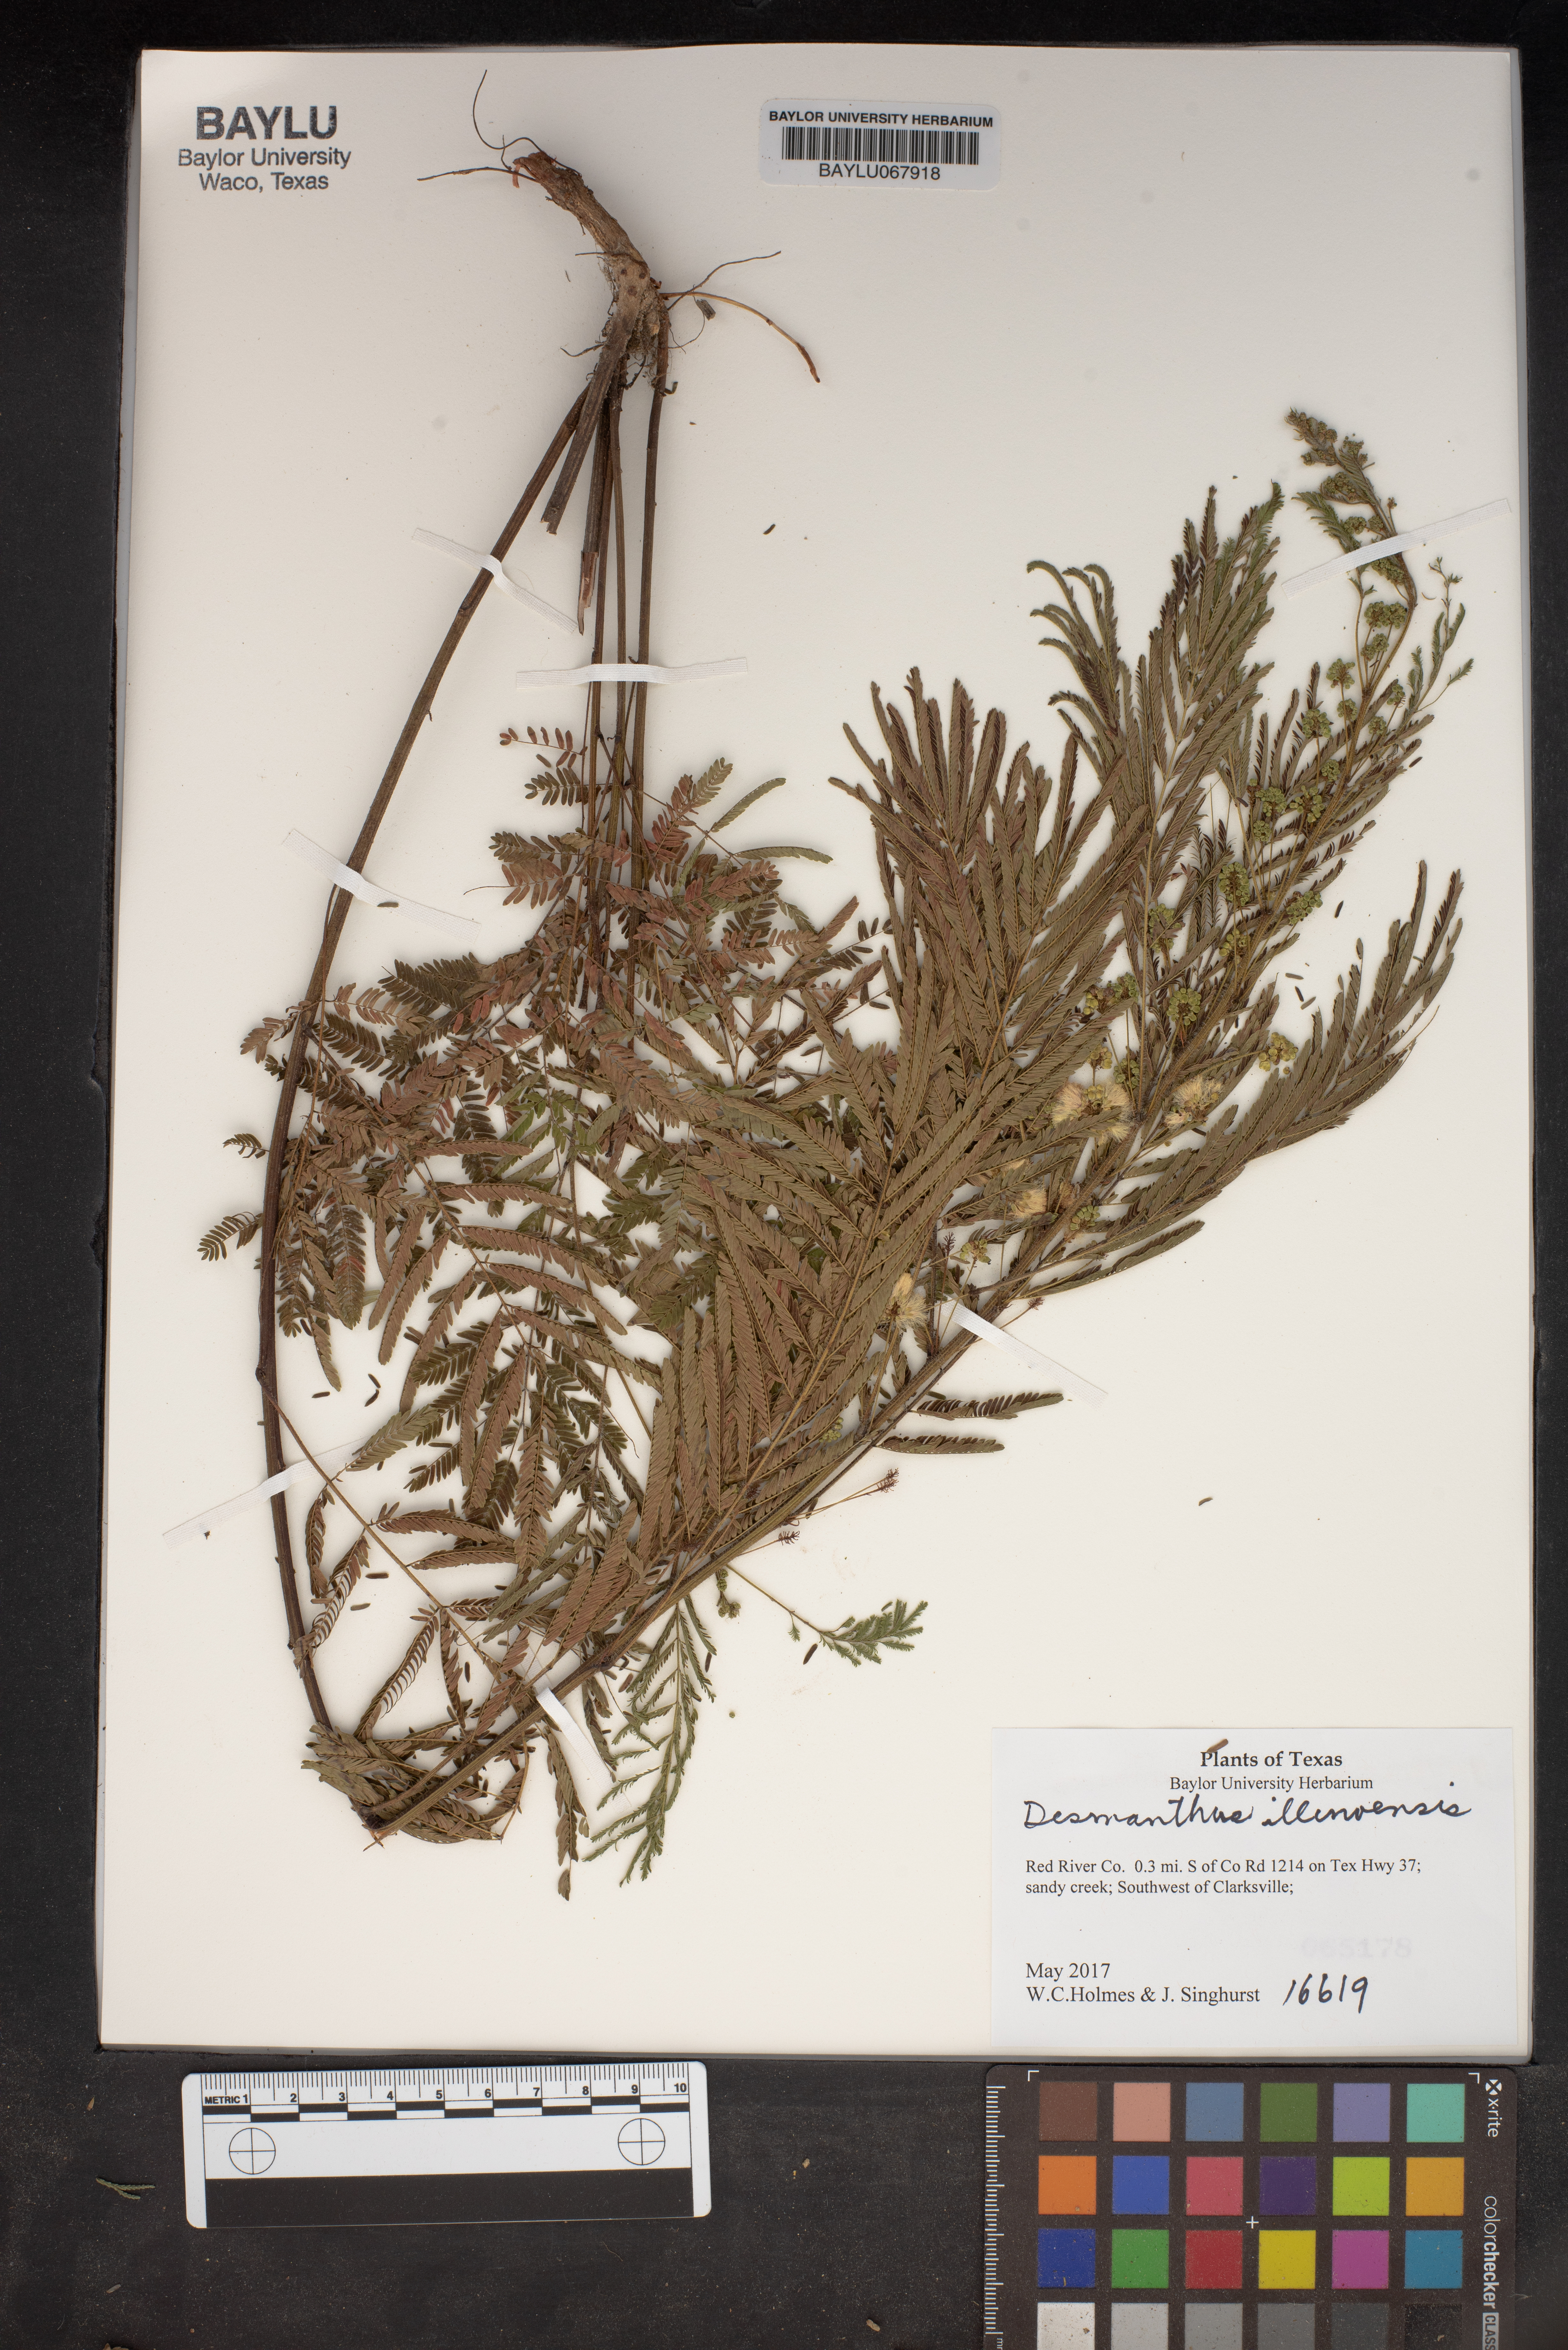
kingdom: Plantae
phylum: Tracheophyta
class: Magnoliopsida
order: Fabales
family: Fabaceae
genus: Desmanthus
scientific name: Desmanthus illinoensis
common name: Illinois bundle-flower
